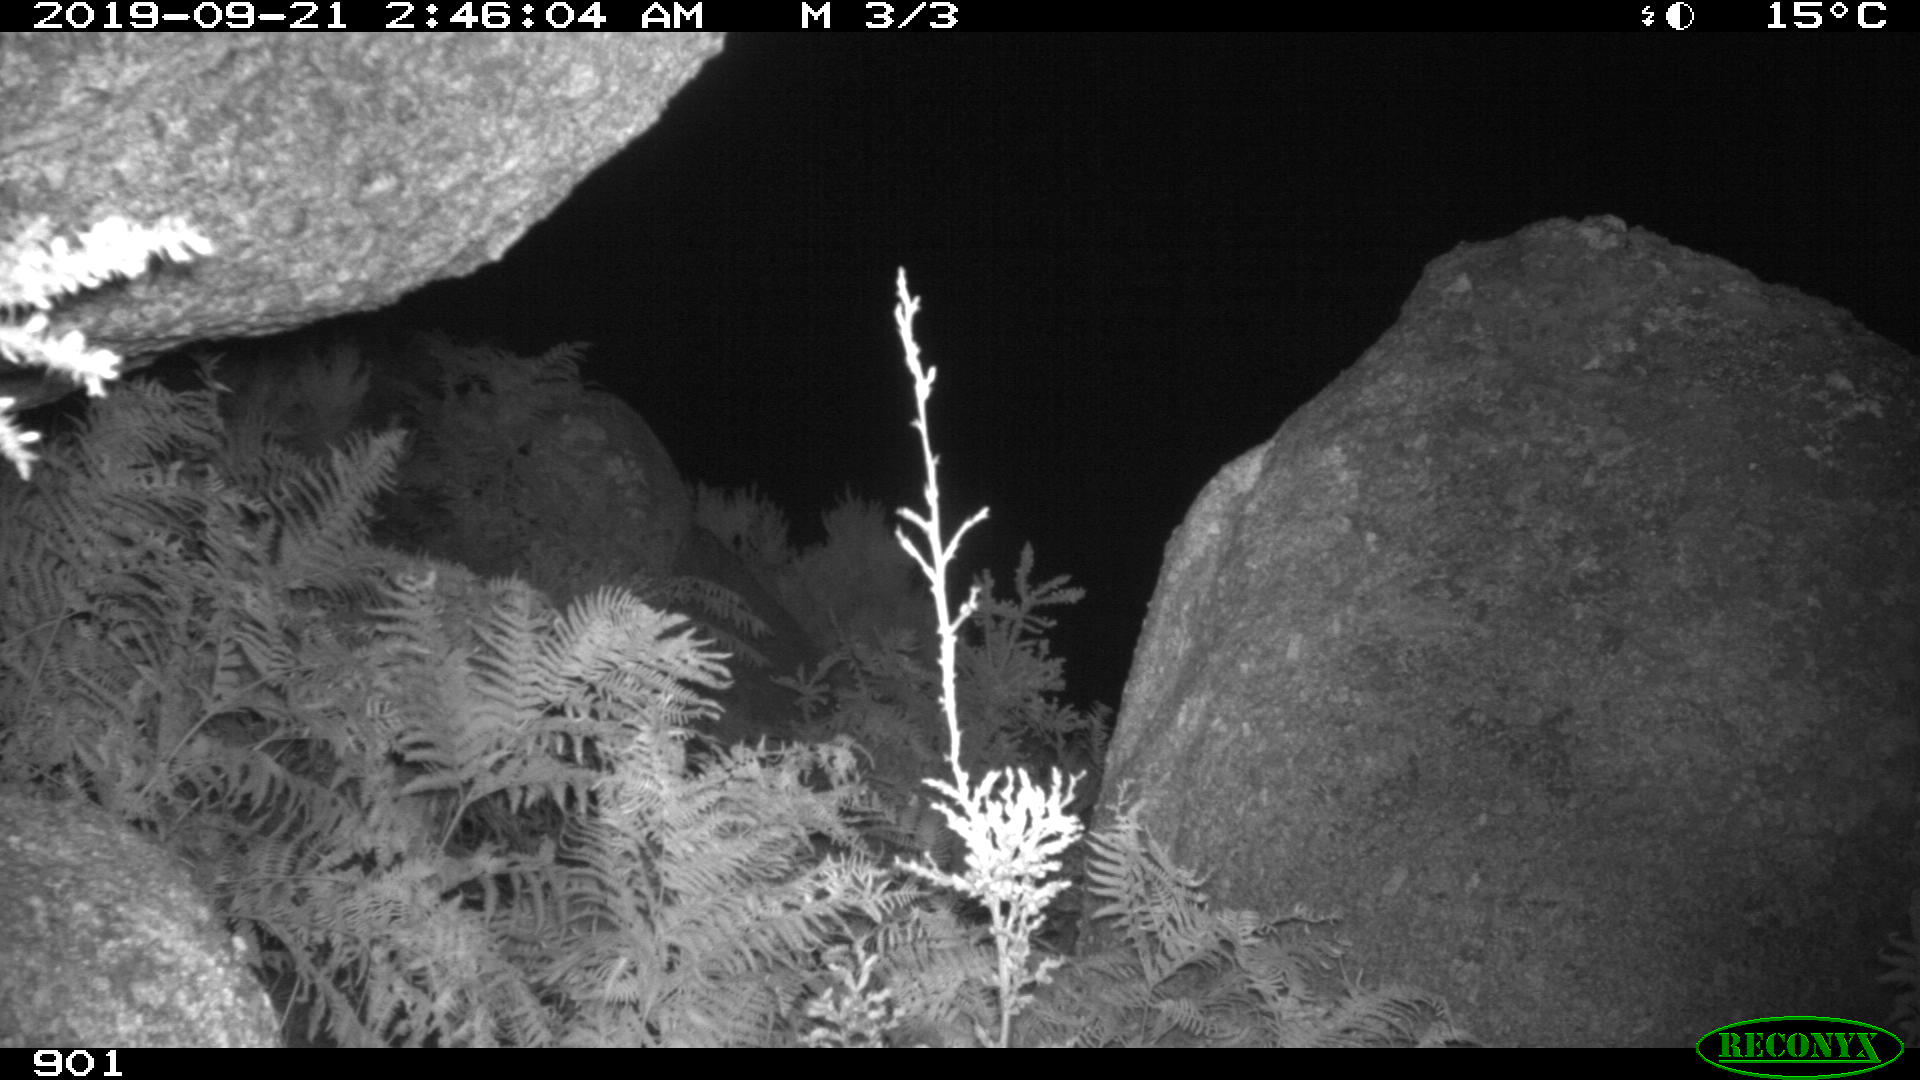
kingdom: Animalia
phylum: Chordata
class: Mammalia
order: Rodentia
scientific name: Rodentia
